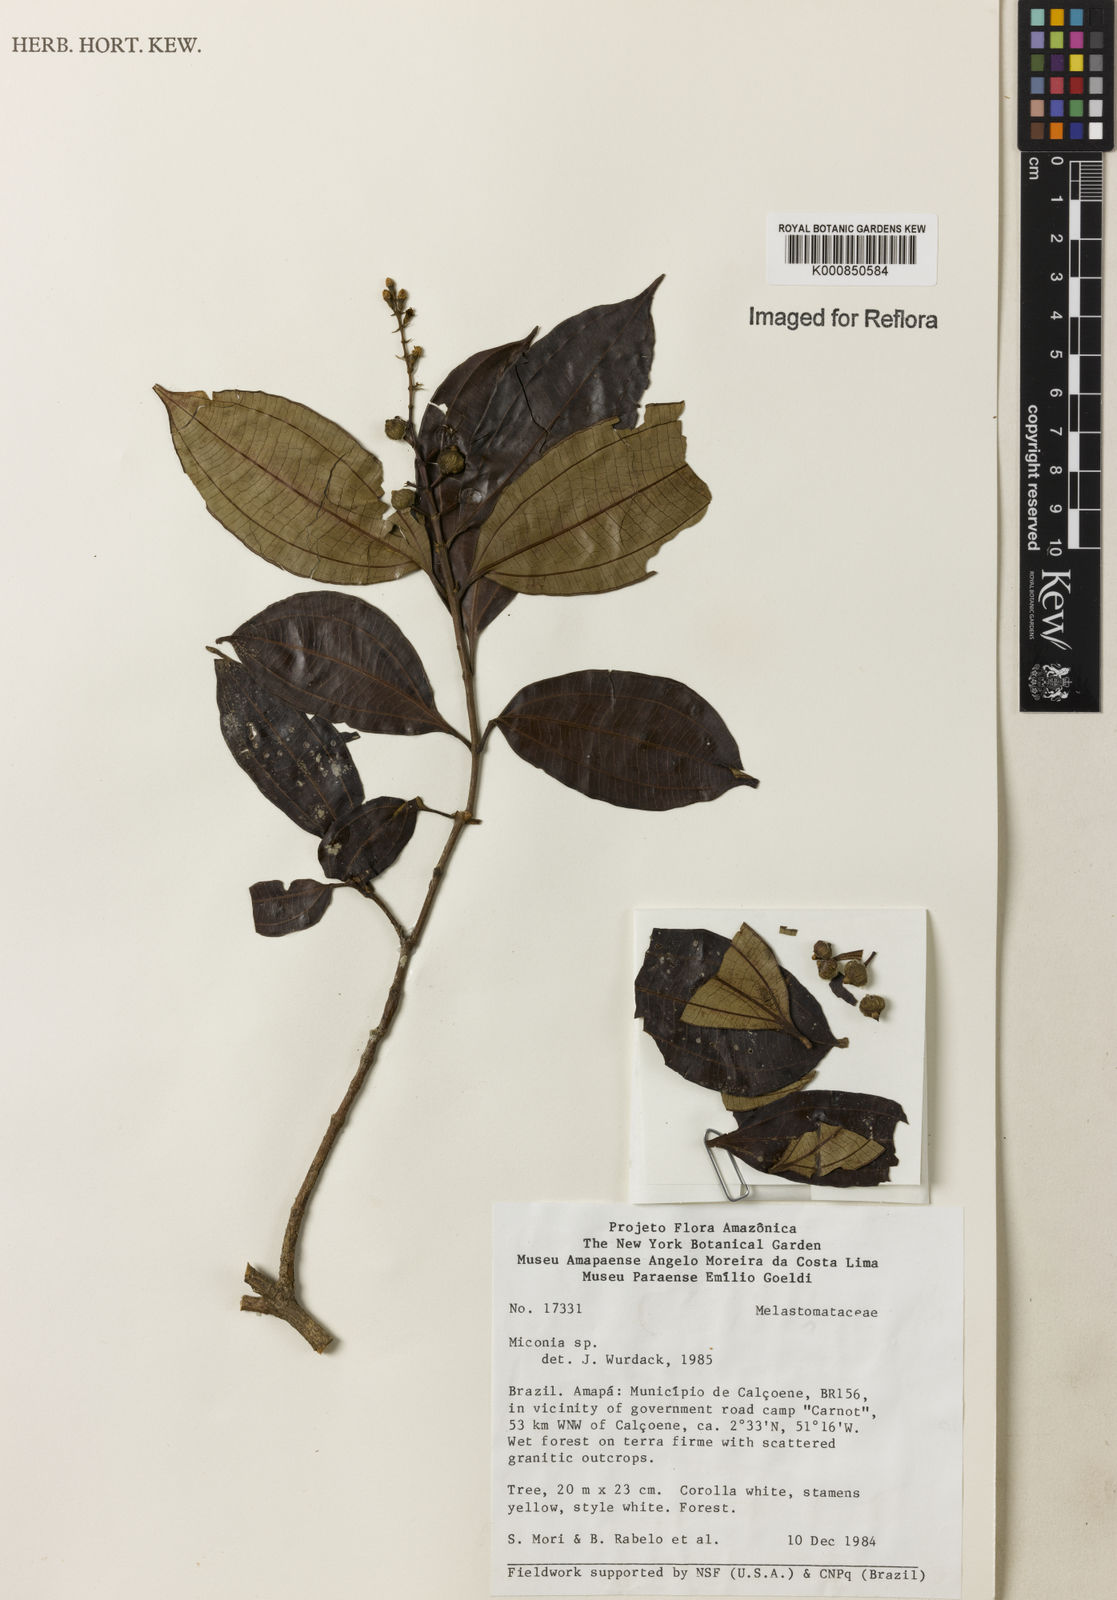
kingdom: Plantae
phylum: Tracheophyta
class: Magnoliopsida
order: Myrtales
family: Melastomataceae
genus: Miconia
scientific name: Miconia
